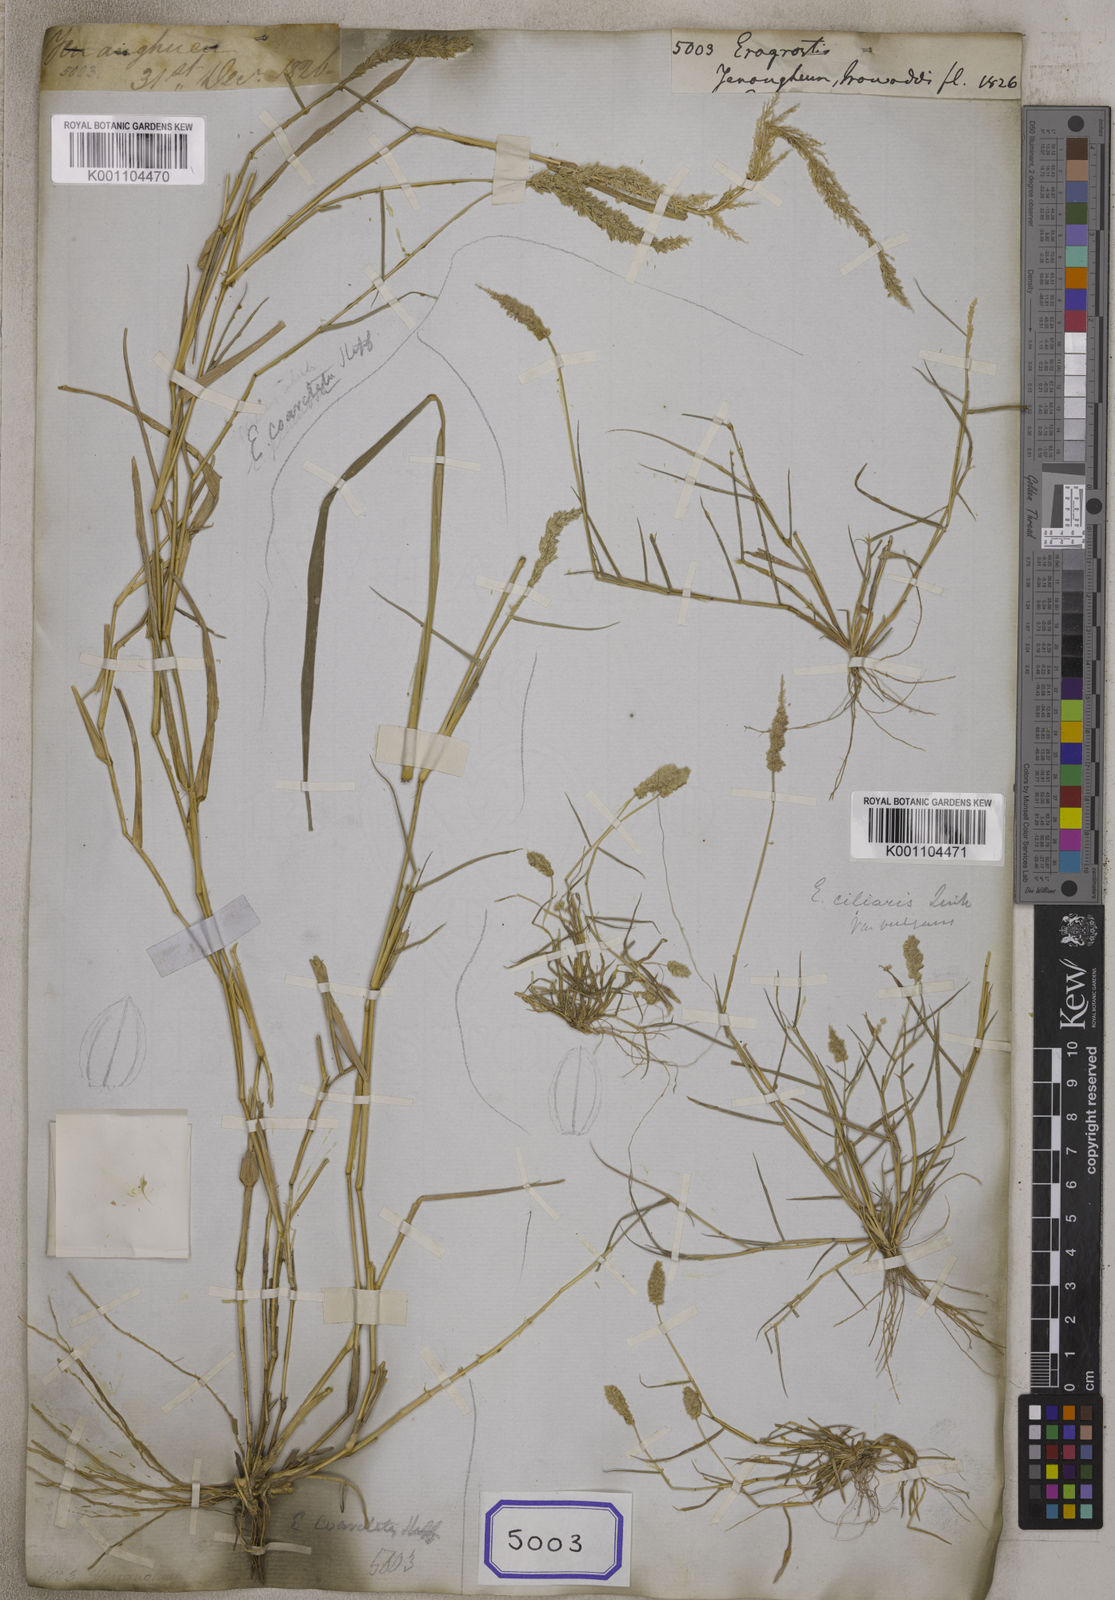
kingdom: Plantae
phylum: Tracheophyta
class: Liliopsida
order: Poales
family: Poaceae
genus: Eragrostis
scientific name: Eragrostis
